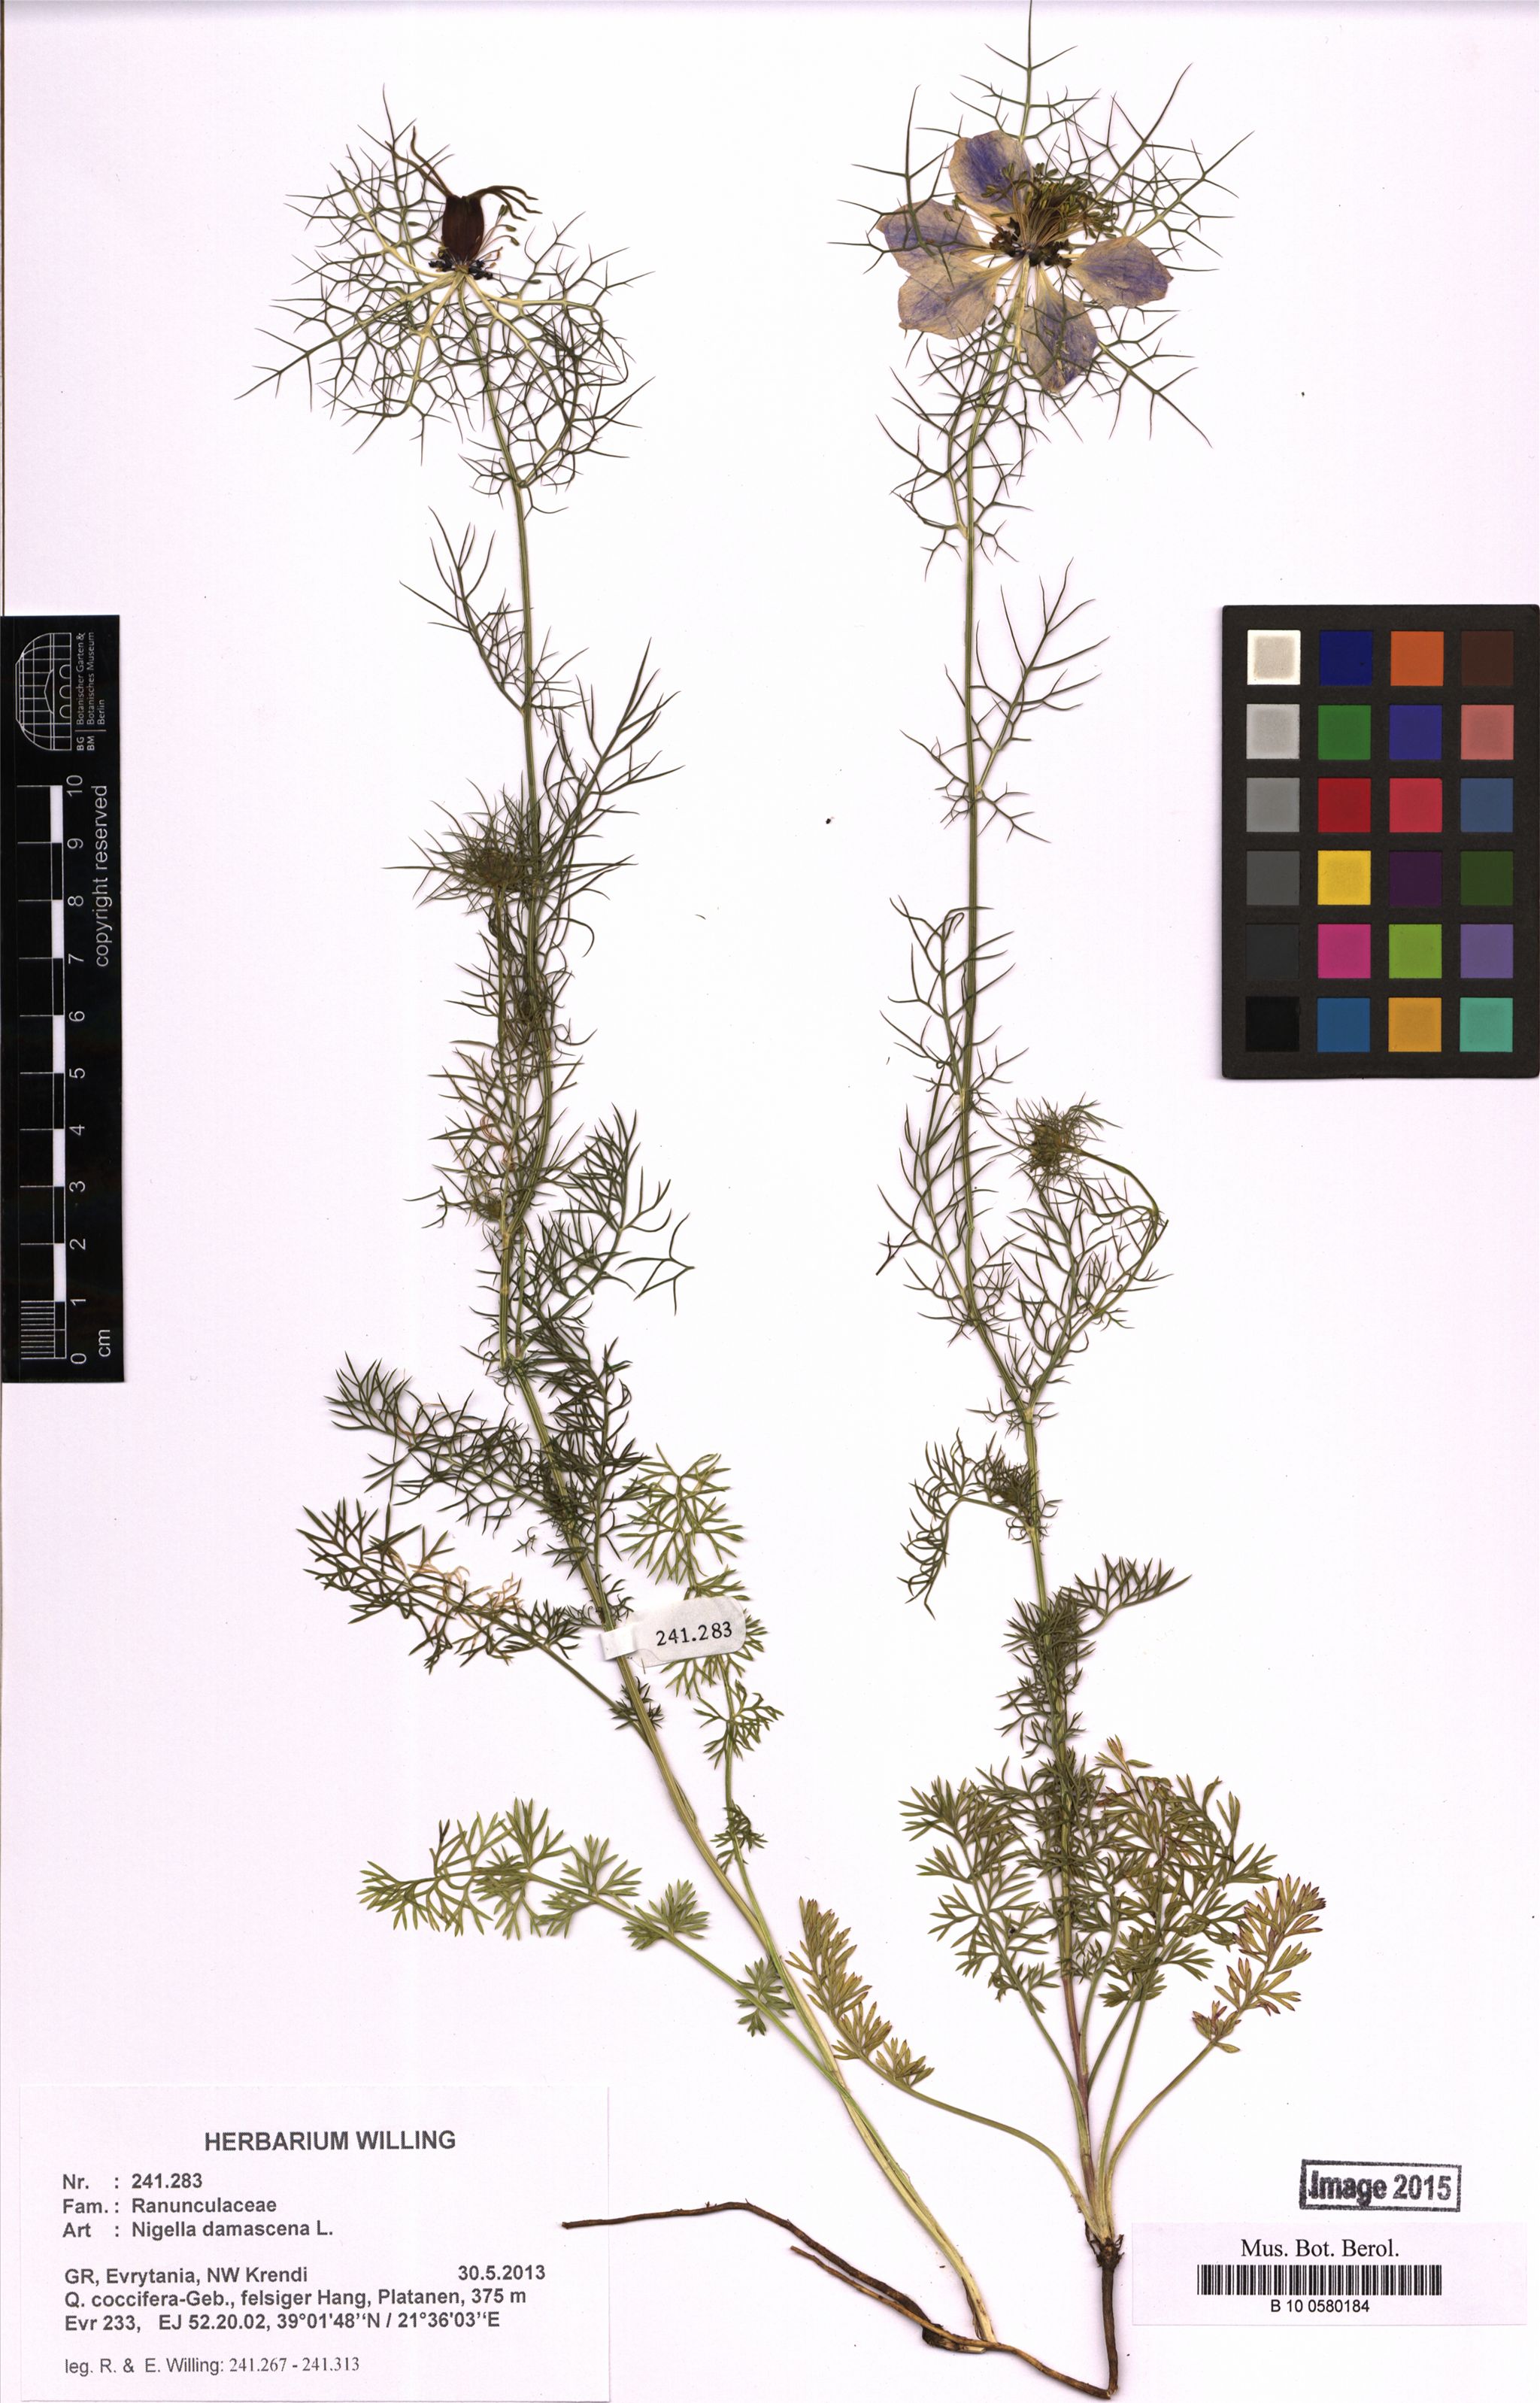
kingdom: Plantae
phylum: Tracheophyta
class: Magnoliopsida
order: Ranunculales
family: Ranunculaceae
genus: Nigella
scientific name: Nigella damascena
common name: Love-in-a-mist
